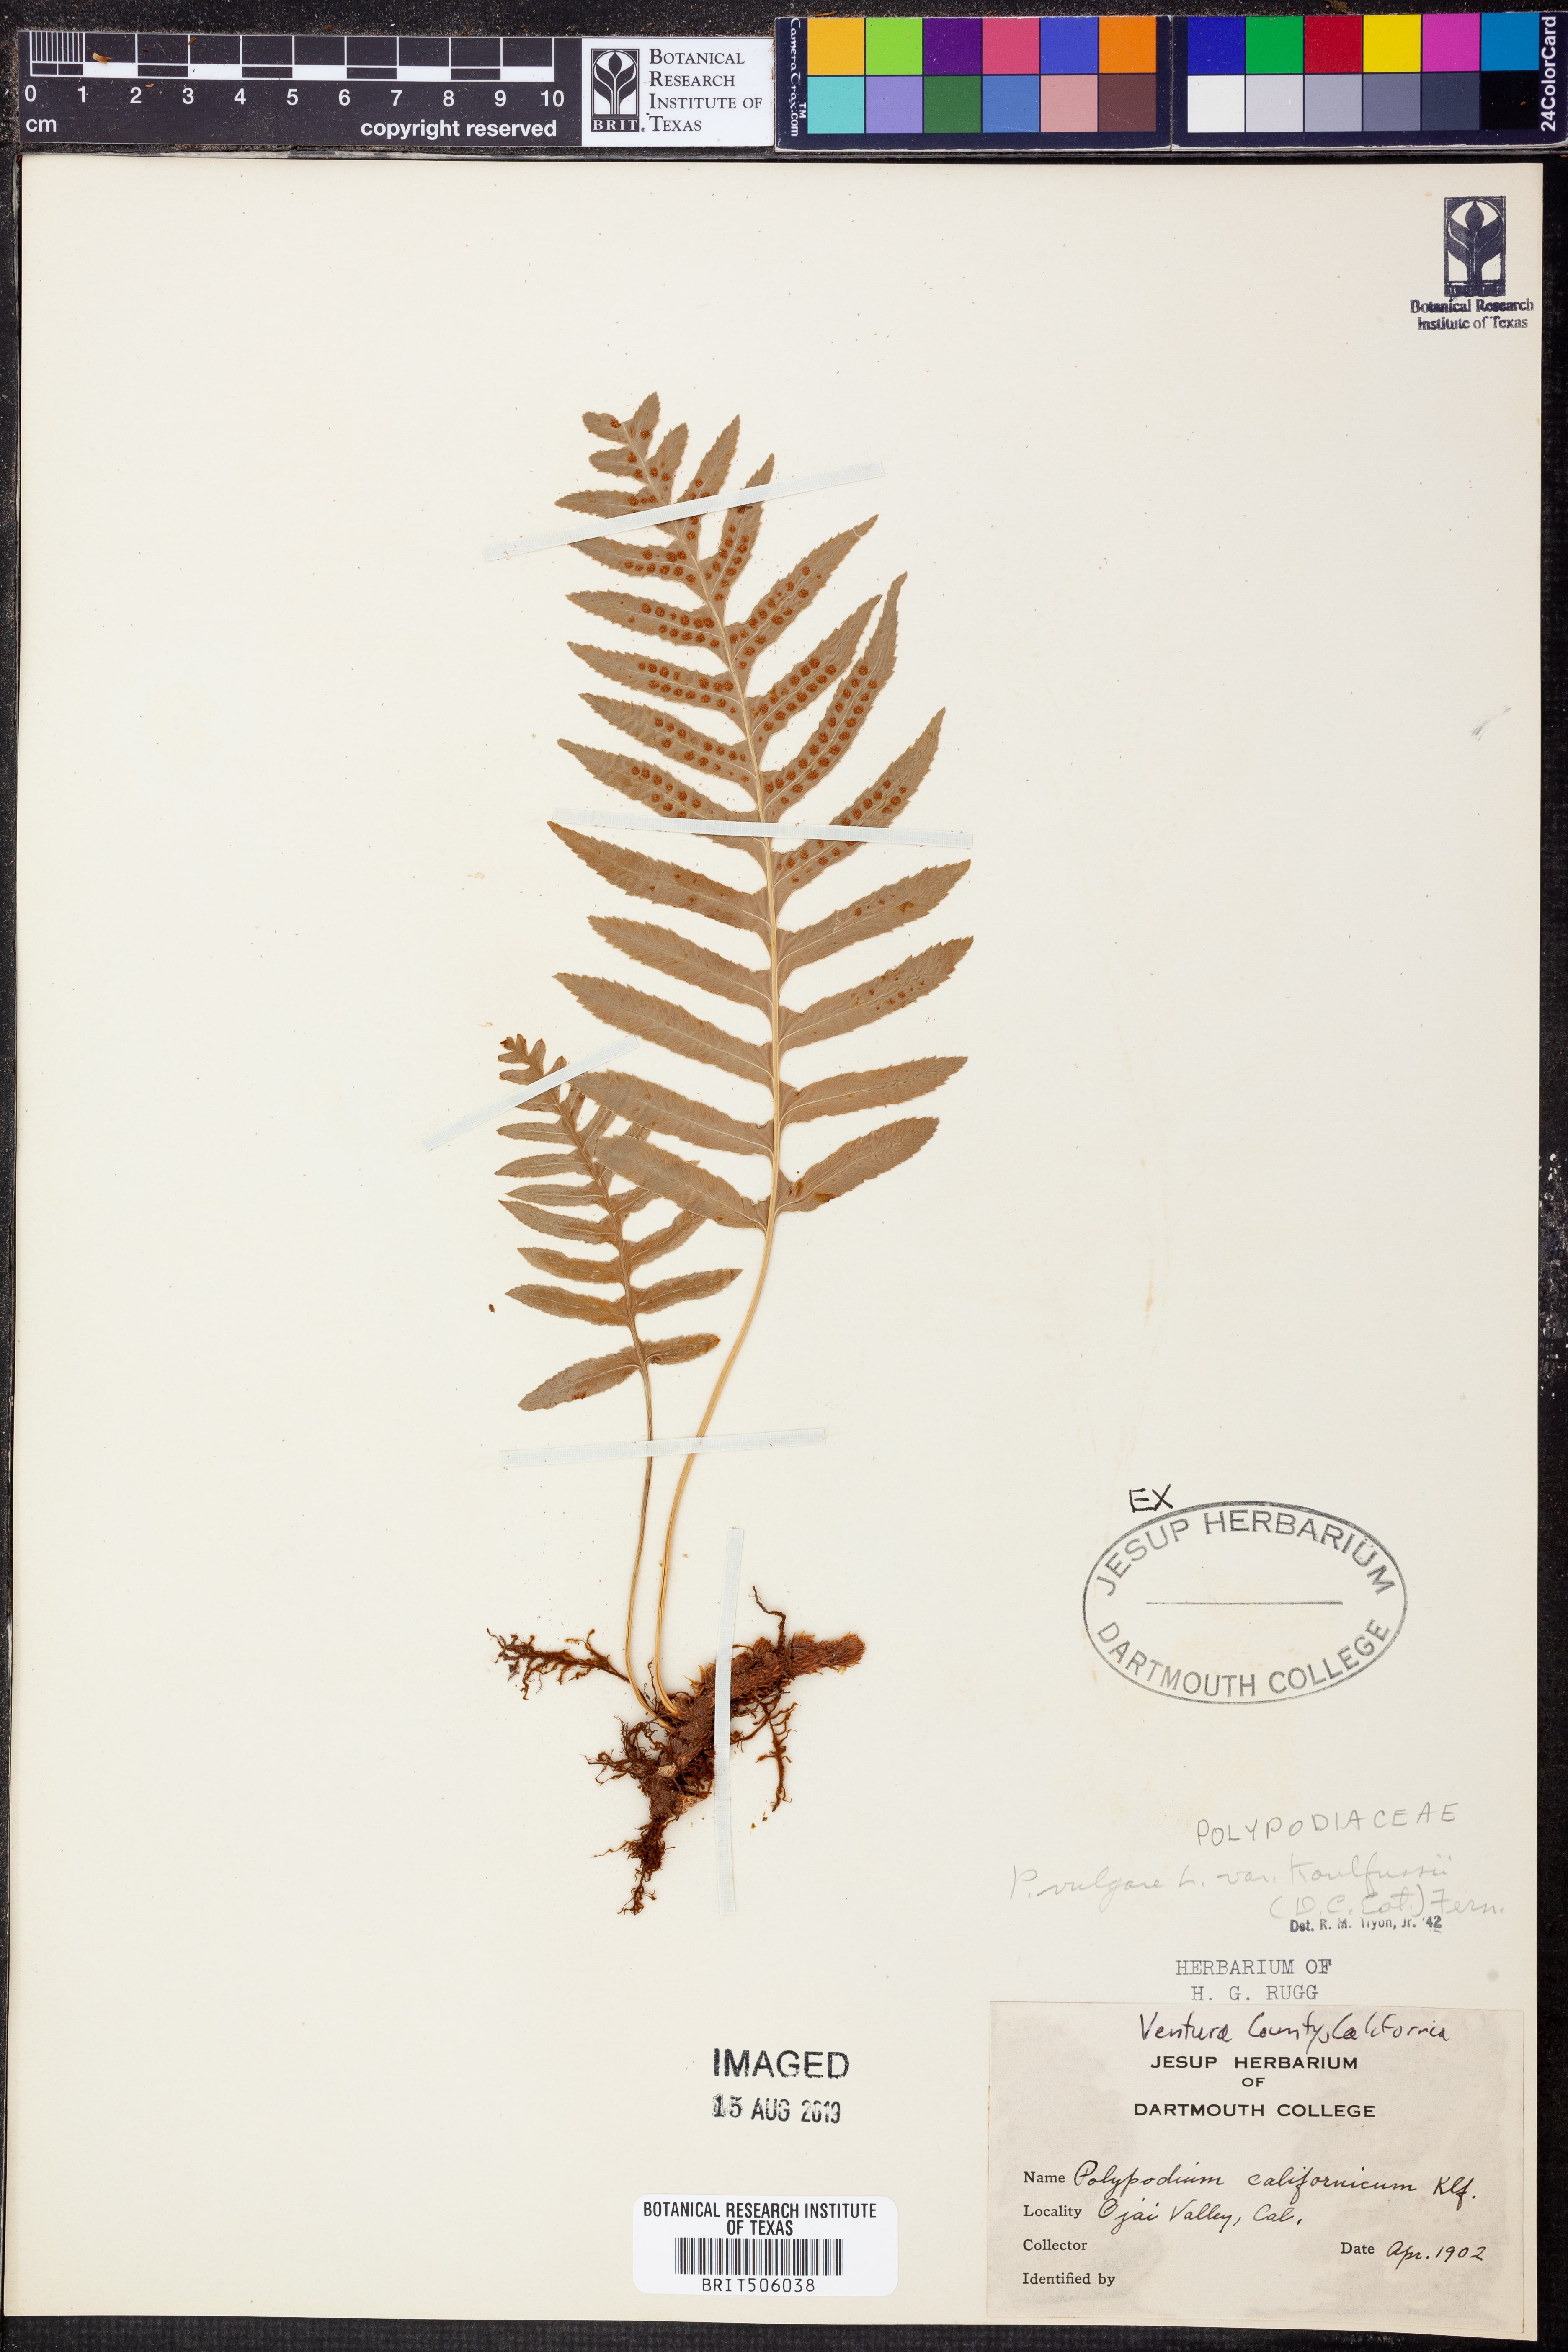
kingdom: Plantae
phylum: Tracheophyta
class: Polypodiopsida
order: Polypodiales
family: Polypodiaceae
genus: Polypodium
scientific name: Polypodium californicum
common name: California polypody
